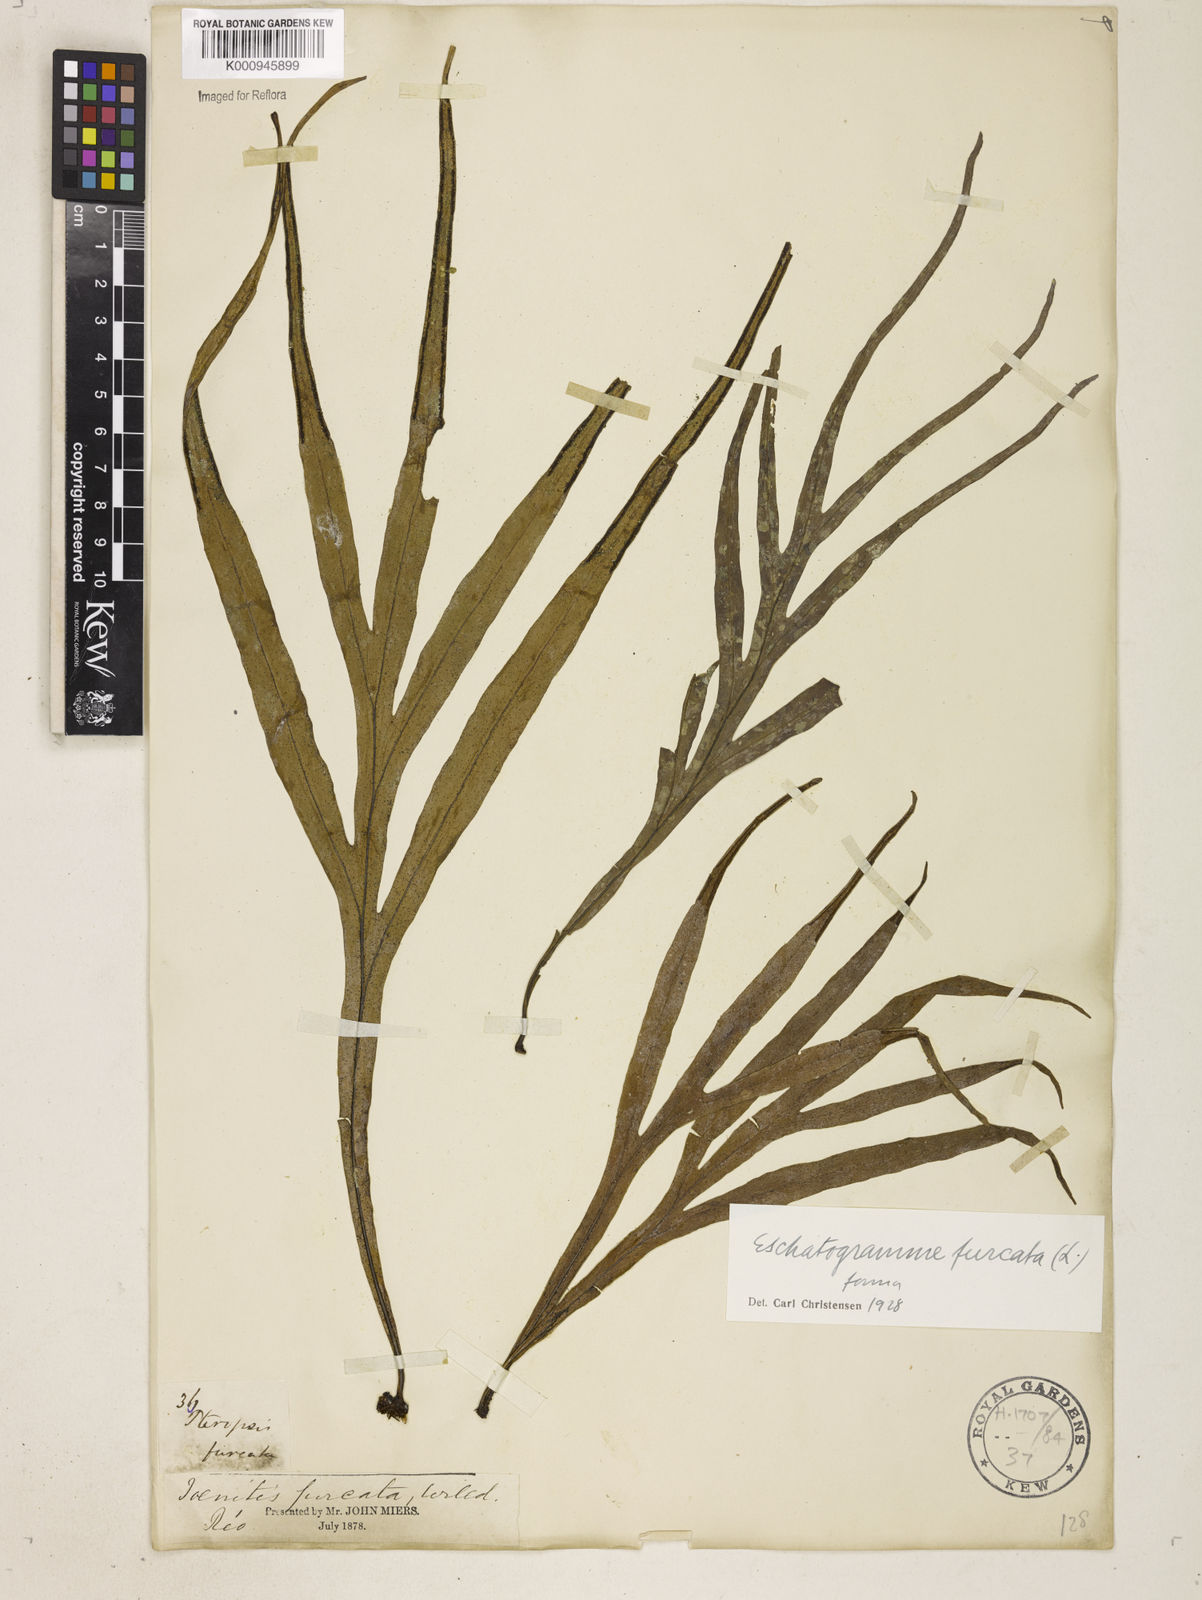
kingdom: Plantae
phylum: Tracheophyta
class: Polypodiopsida
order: Polypodiales
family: Polypodiaceae
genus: Pleopeltis
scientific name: Pleopeltis desvauxii
